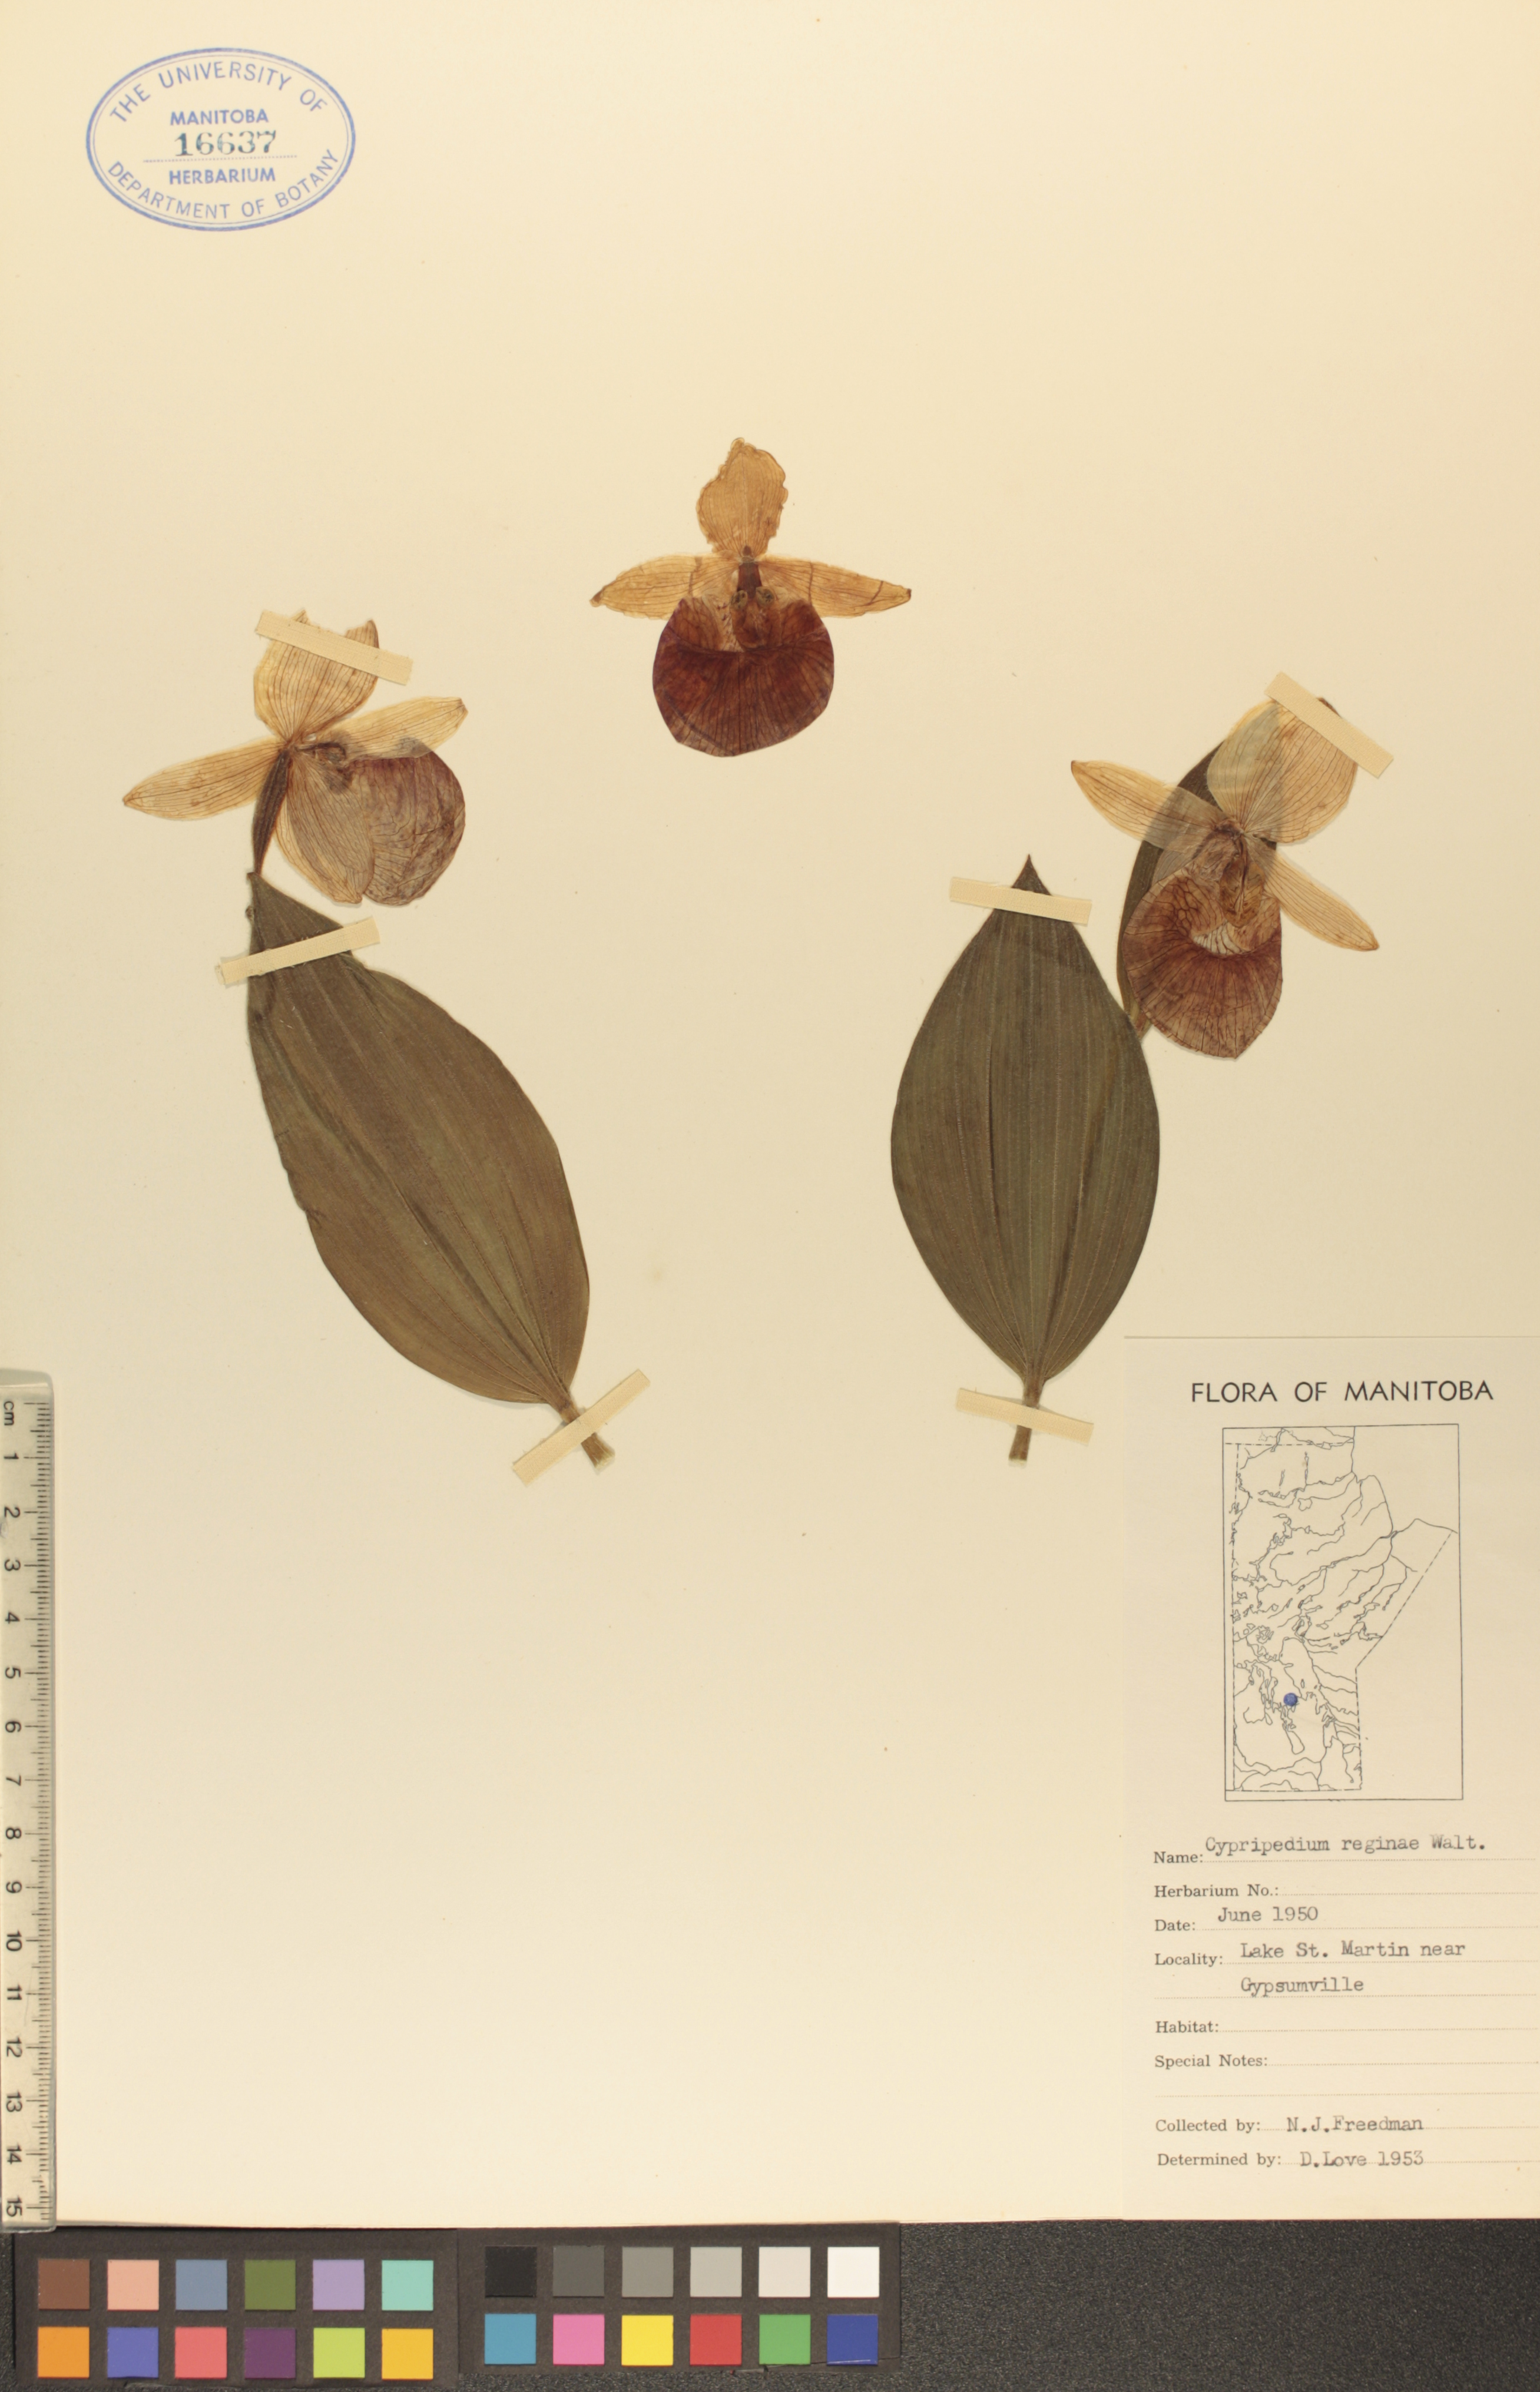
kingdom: Plantae
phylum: Tracheophyta
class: Liliopsida
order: Asparagales
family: Orchidaceae
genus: Cypripedium
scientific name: Cypripedium reginae
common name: Queen lady's-slipper
